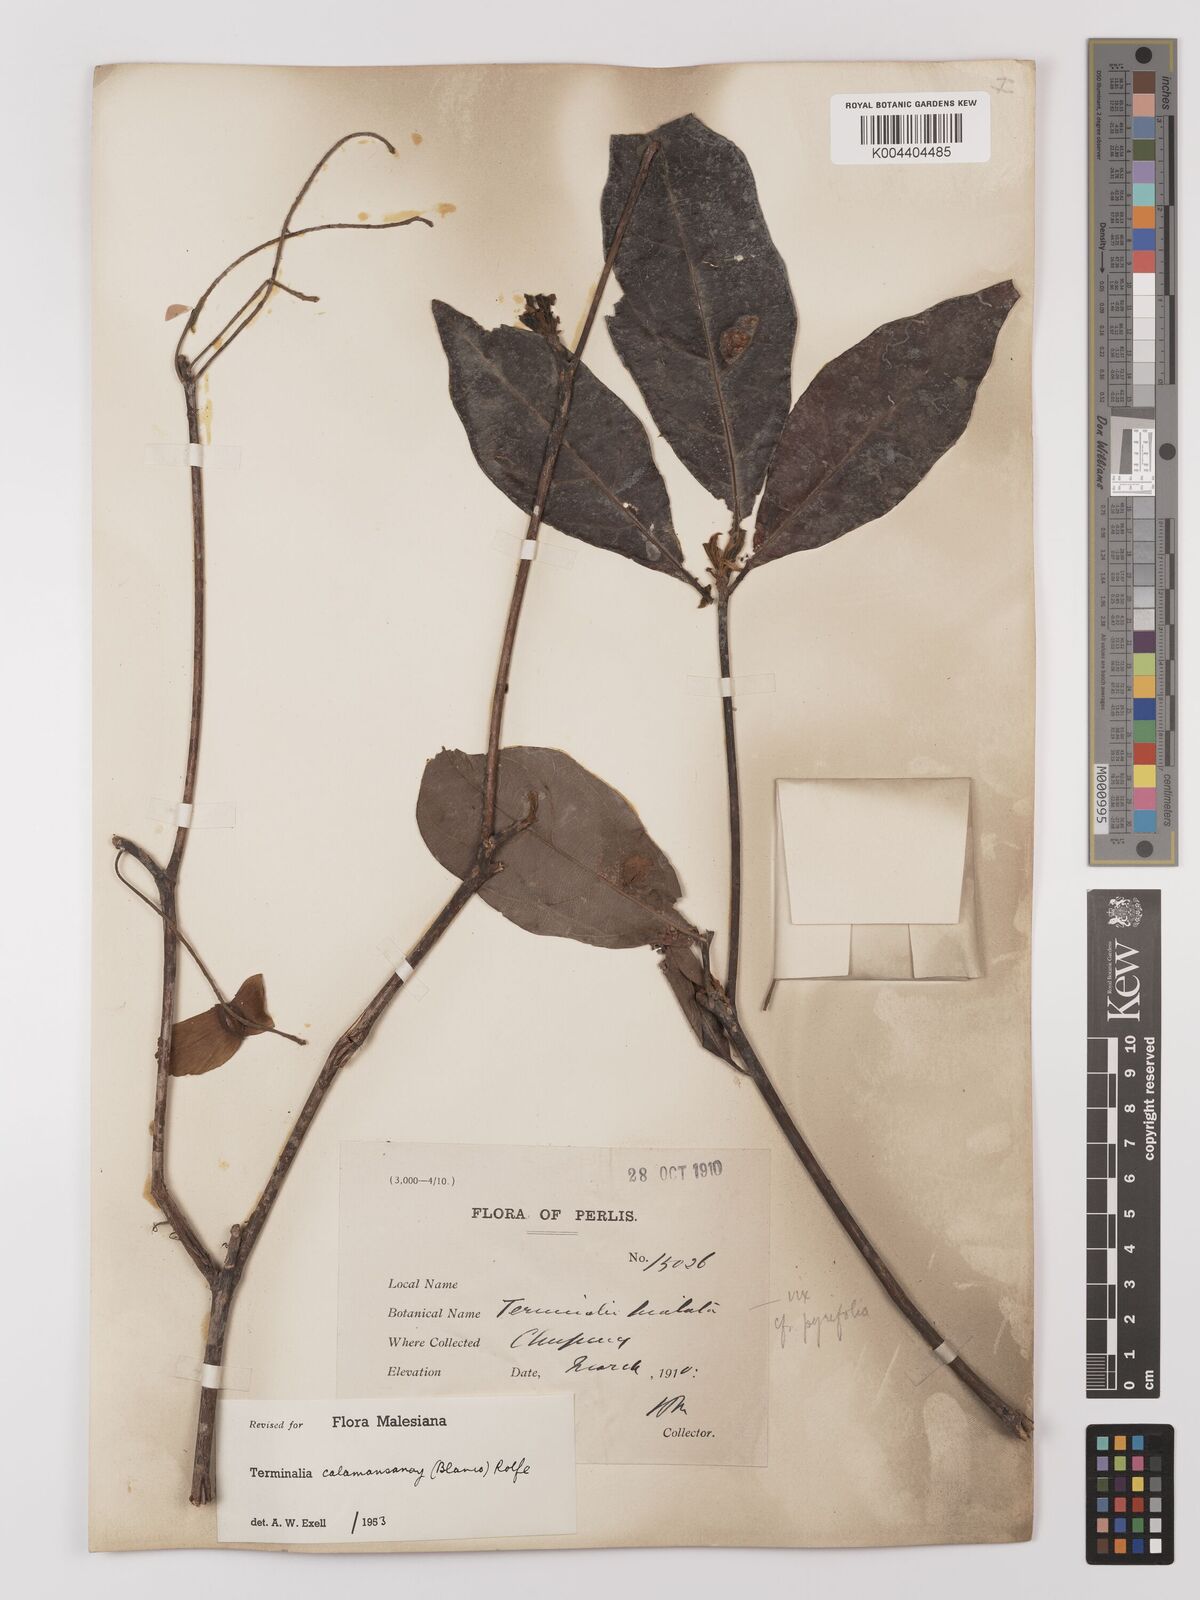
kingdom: Plantae
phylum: Tracheophyta
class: Magnoliopsida
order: Myrtales
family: Combretaceae
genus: Terminalia
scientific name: Terminalia calamansanai
